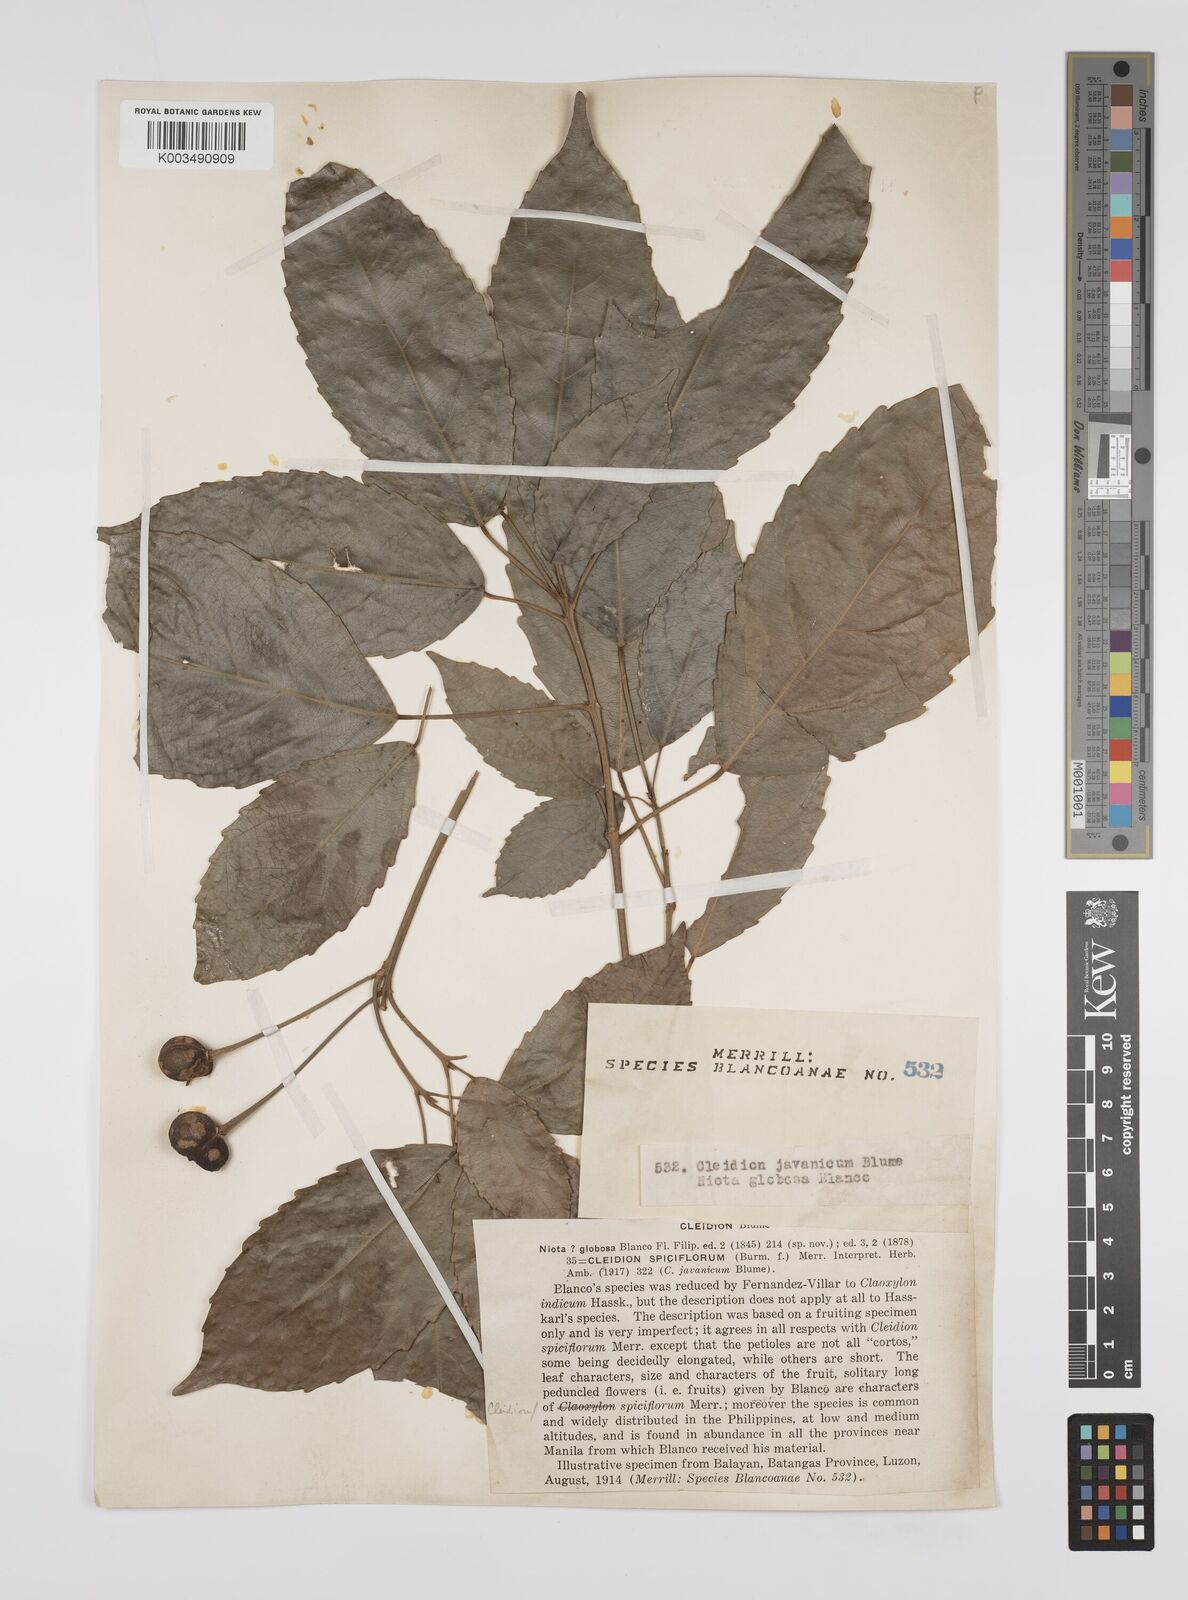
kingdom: Plantae
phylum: Tracheophyta
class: Magnoliopsida
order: Malpighiales
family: Euphorbiaceae
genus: Cleidion
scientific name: Cleidion javanicum
